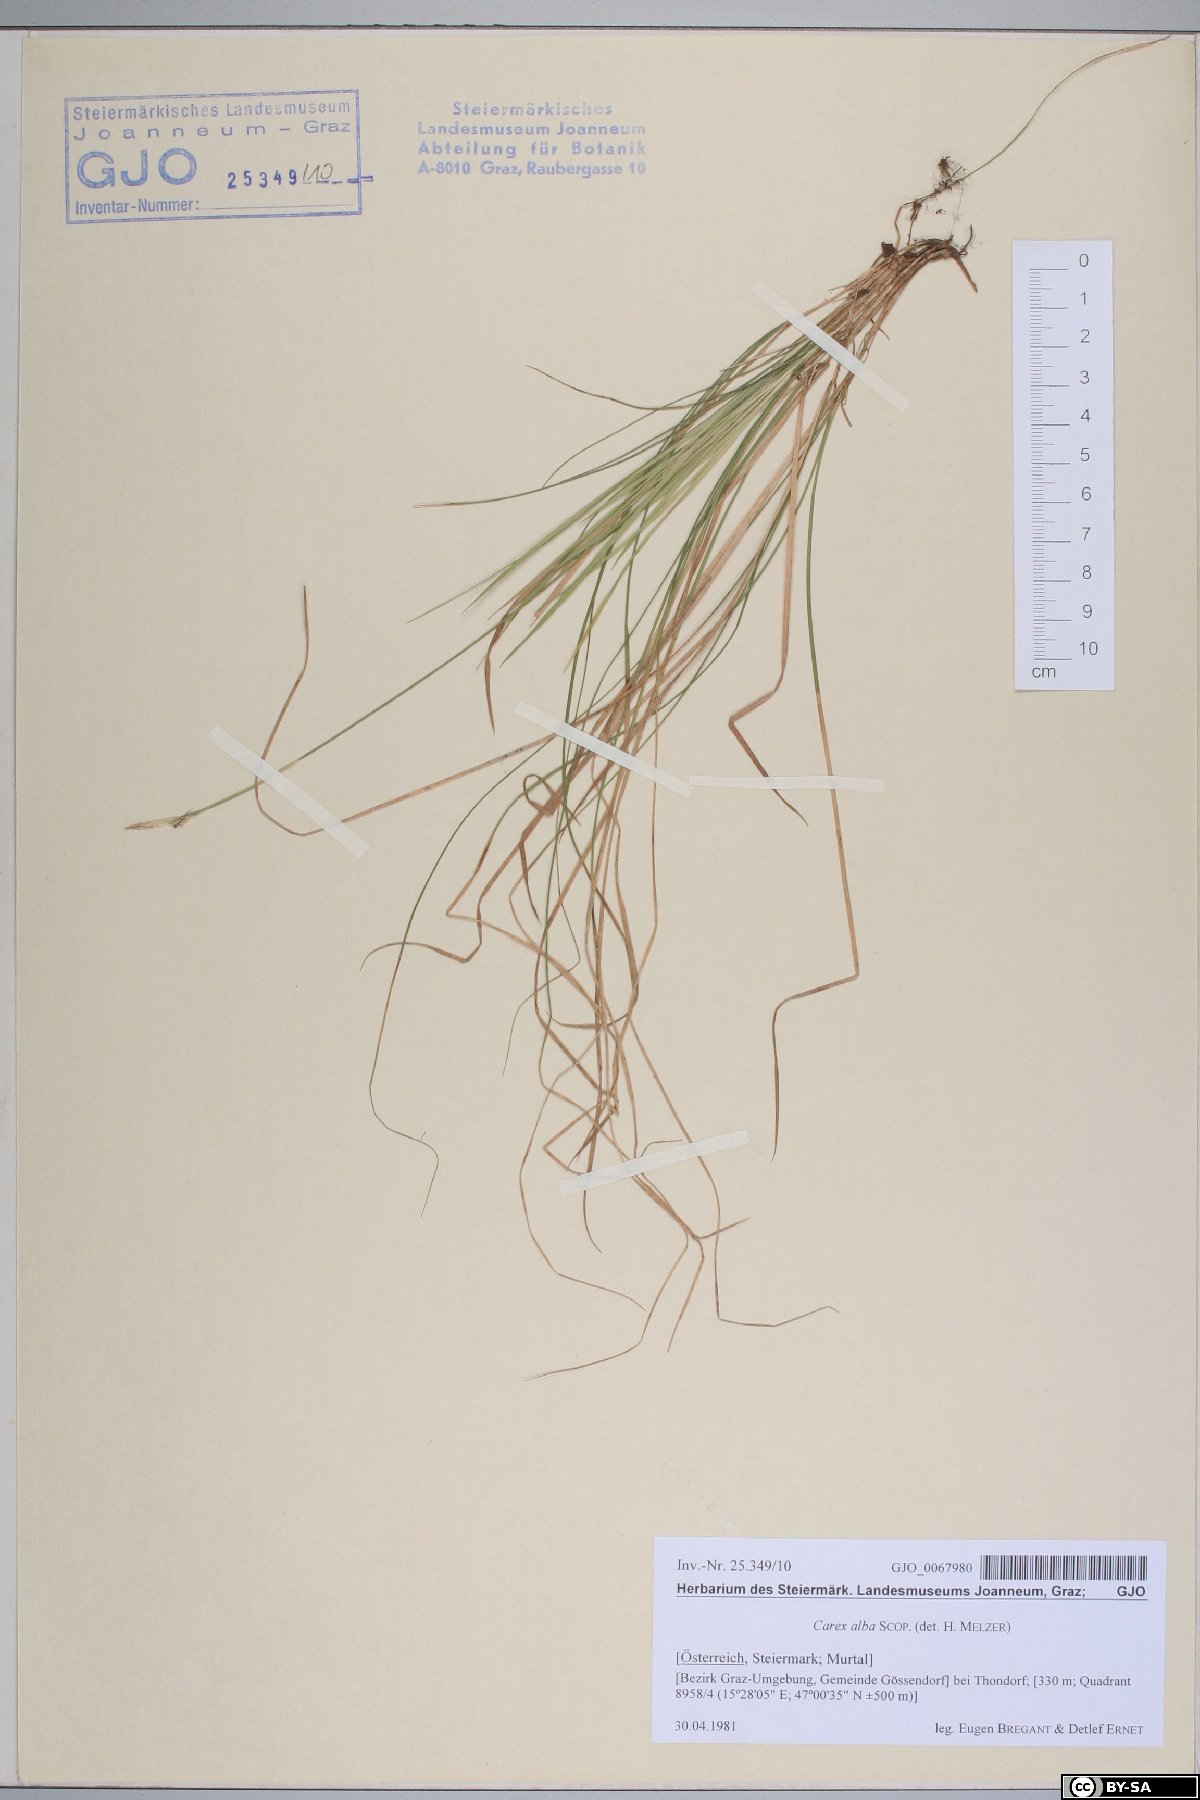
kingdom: Plantae
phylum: Tracheophyta
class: Liliopsida
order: Poales
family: Cyperaceae
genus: Carex
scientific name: Carex alba
